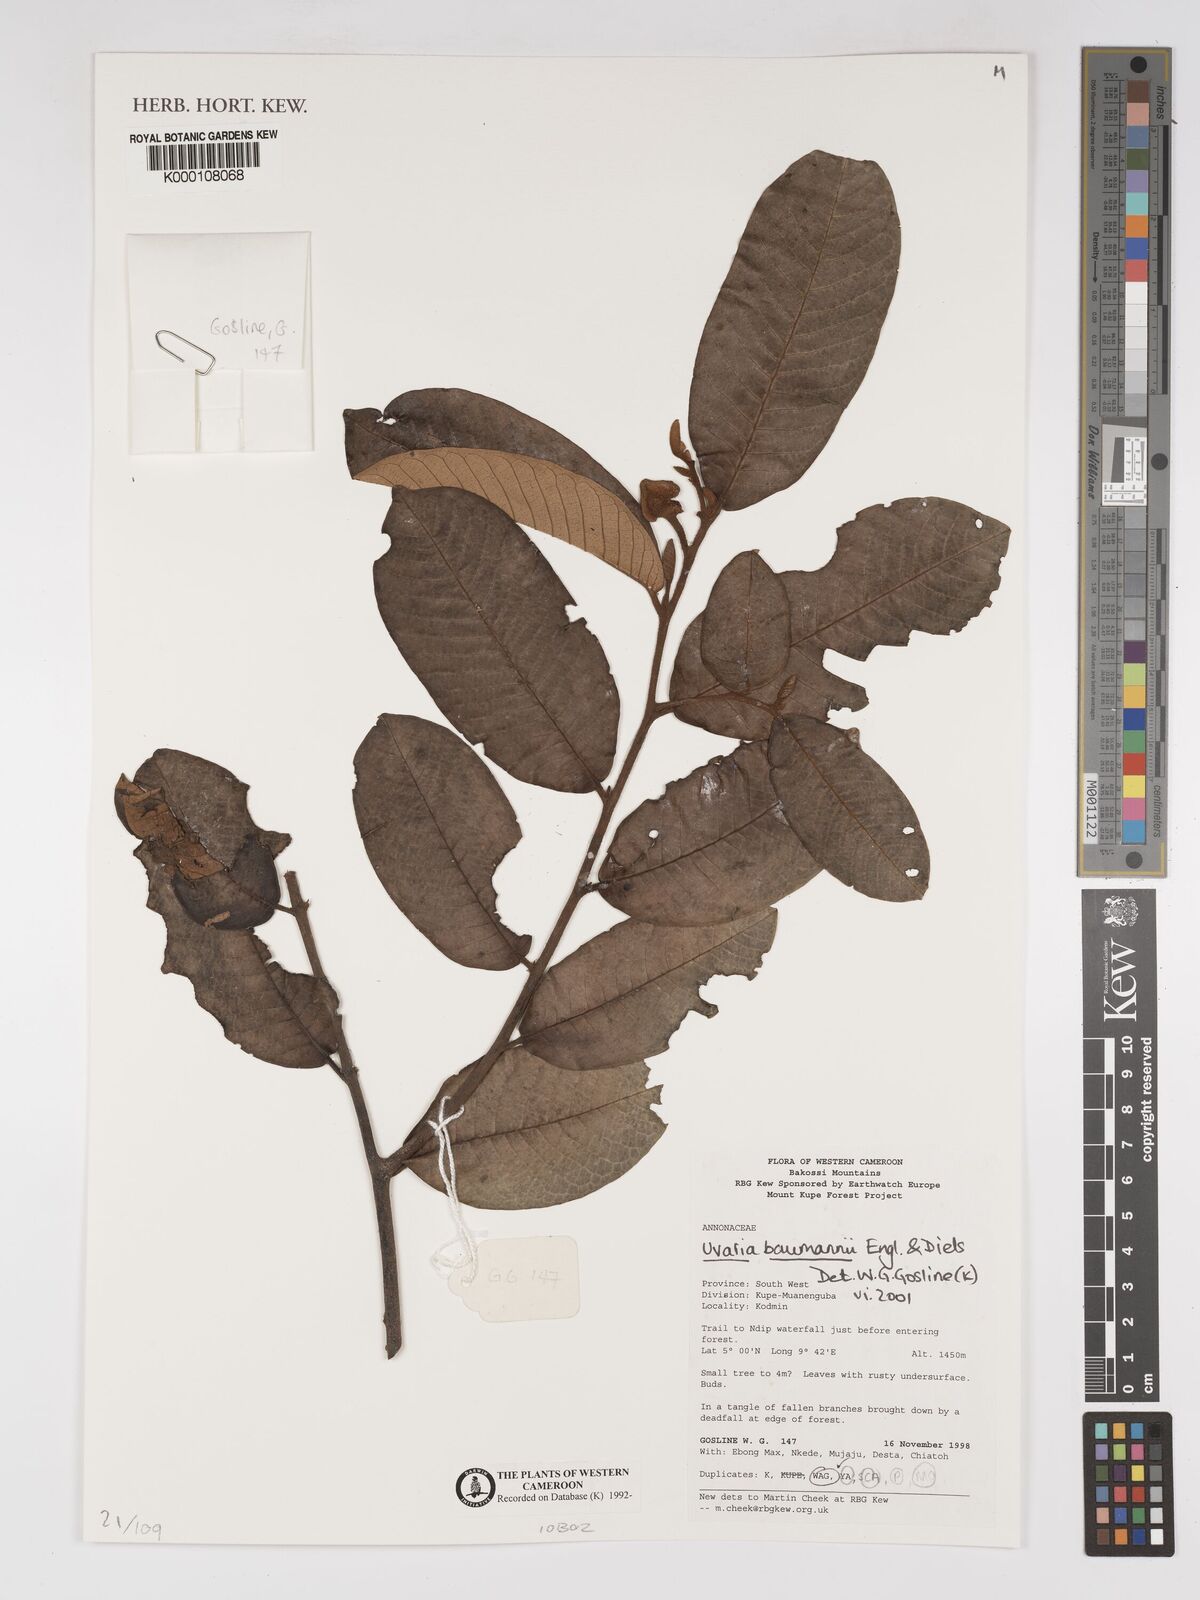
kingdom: Plantae
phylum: Tracheophyta
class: Magnoliopsida
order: Magnoliales
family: Annonaceae
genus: Uvaria
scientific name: Uvaria baumannii
